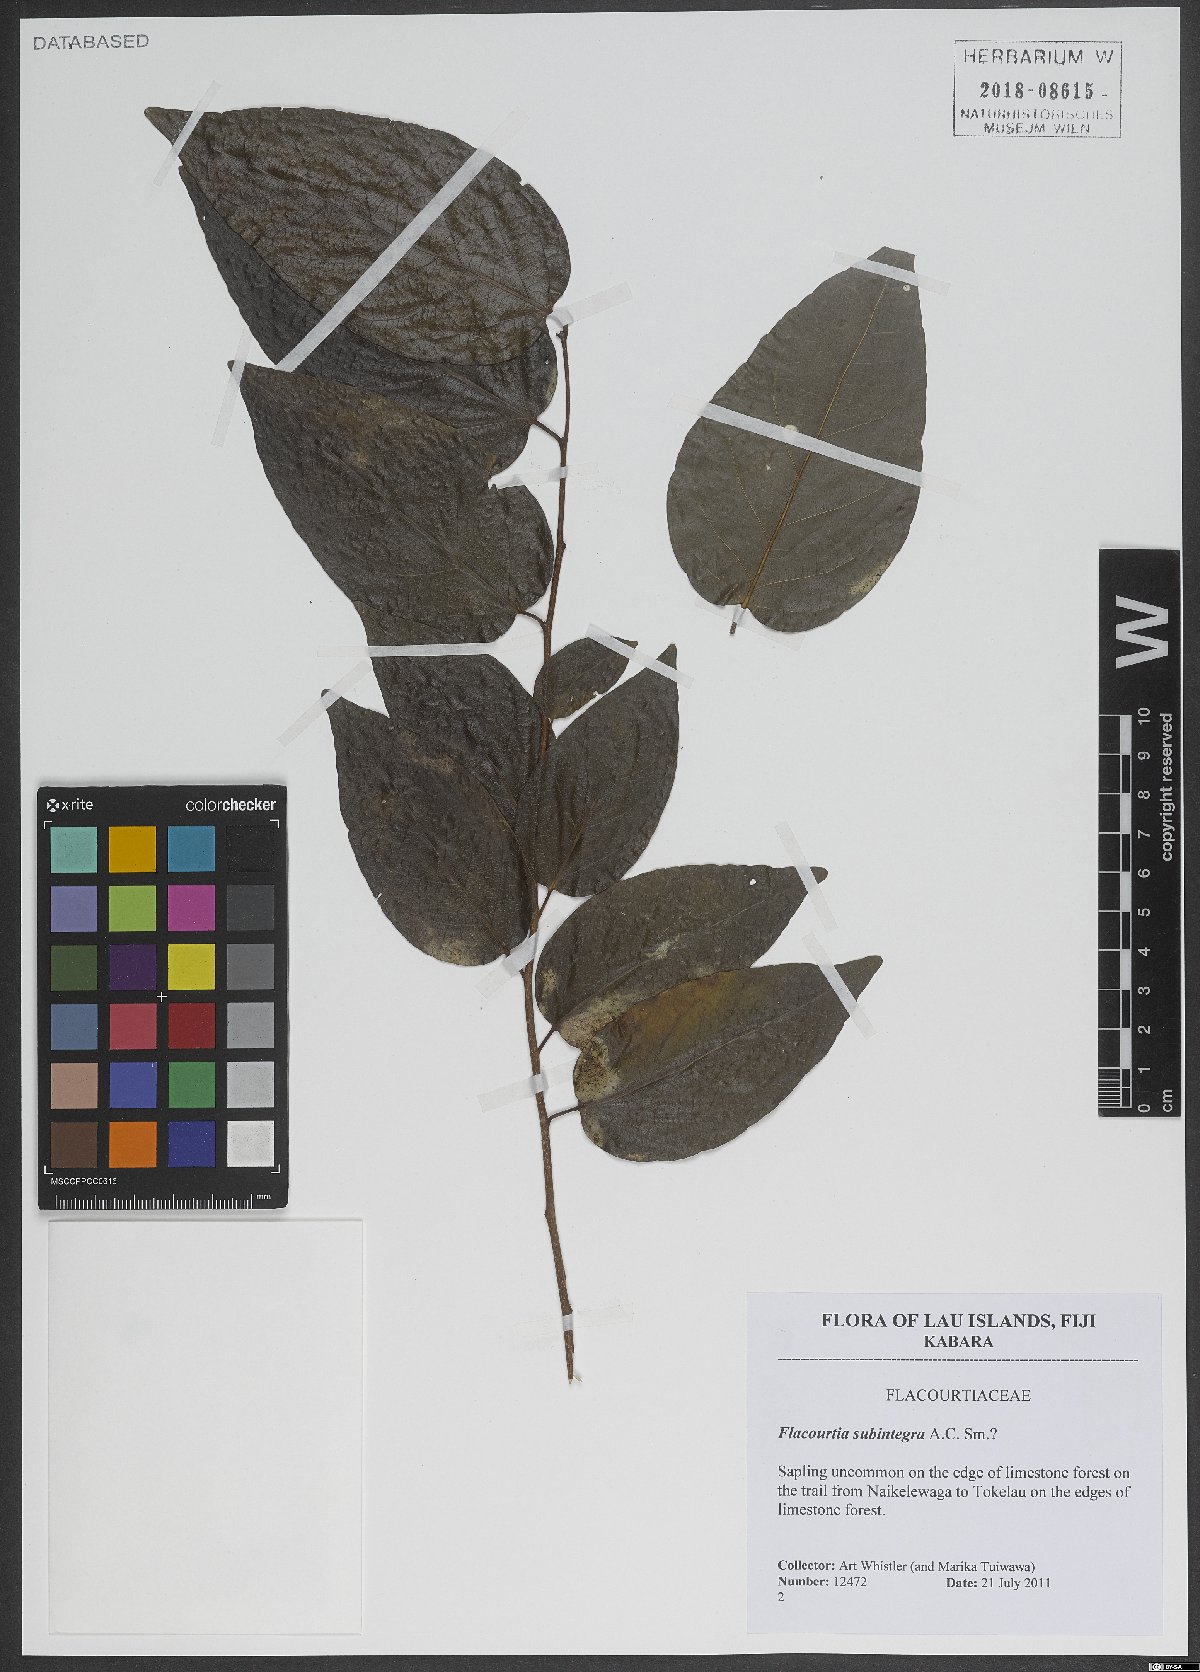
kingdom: Plantae
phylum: Tracheophyta
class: Magnoliopsida
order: Malpighiales
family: Salicaceae
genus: Flacourtia
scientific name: Flacourtia subintegra
